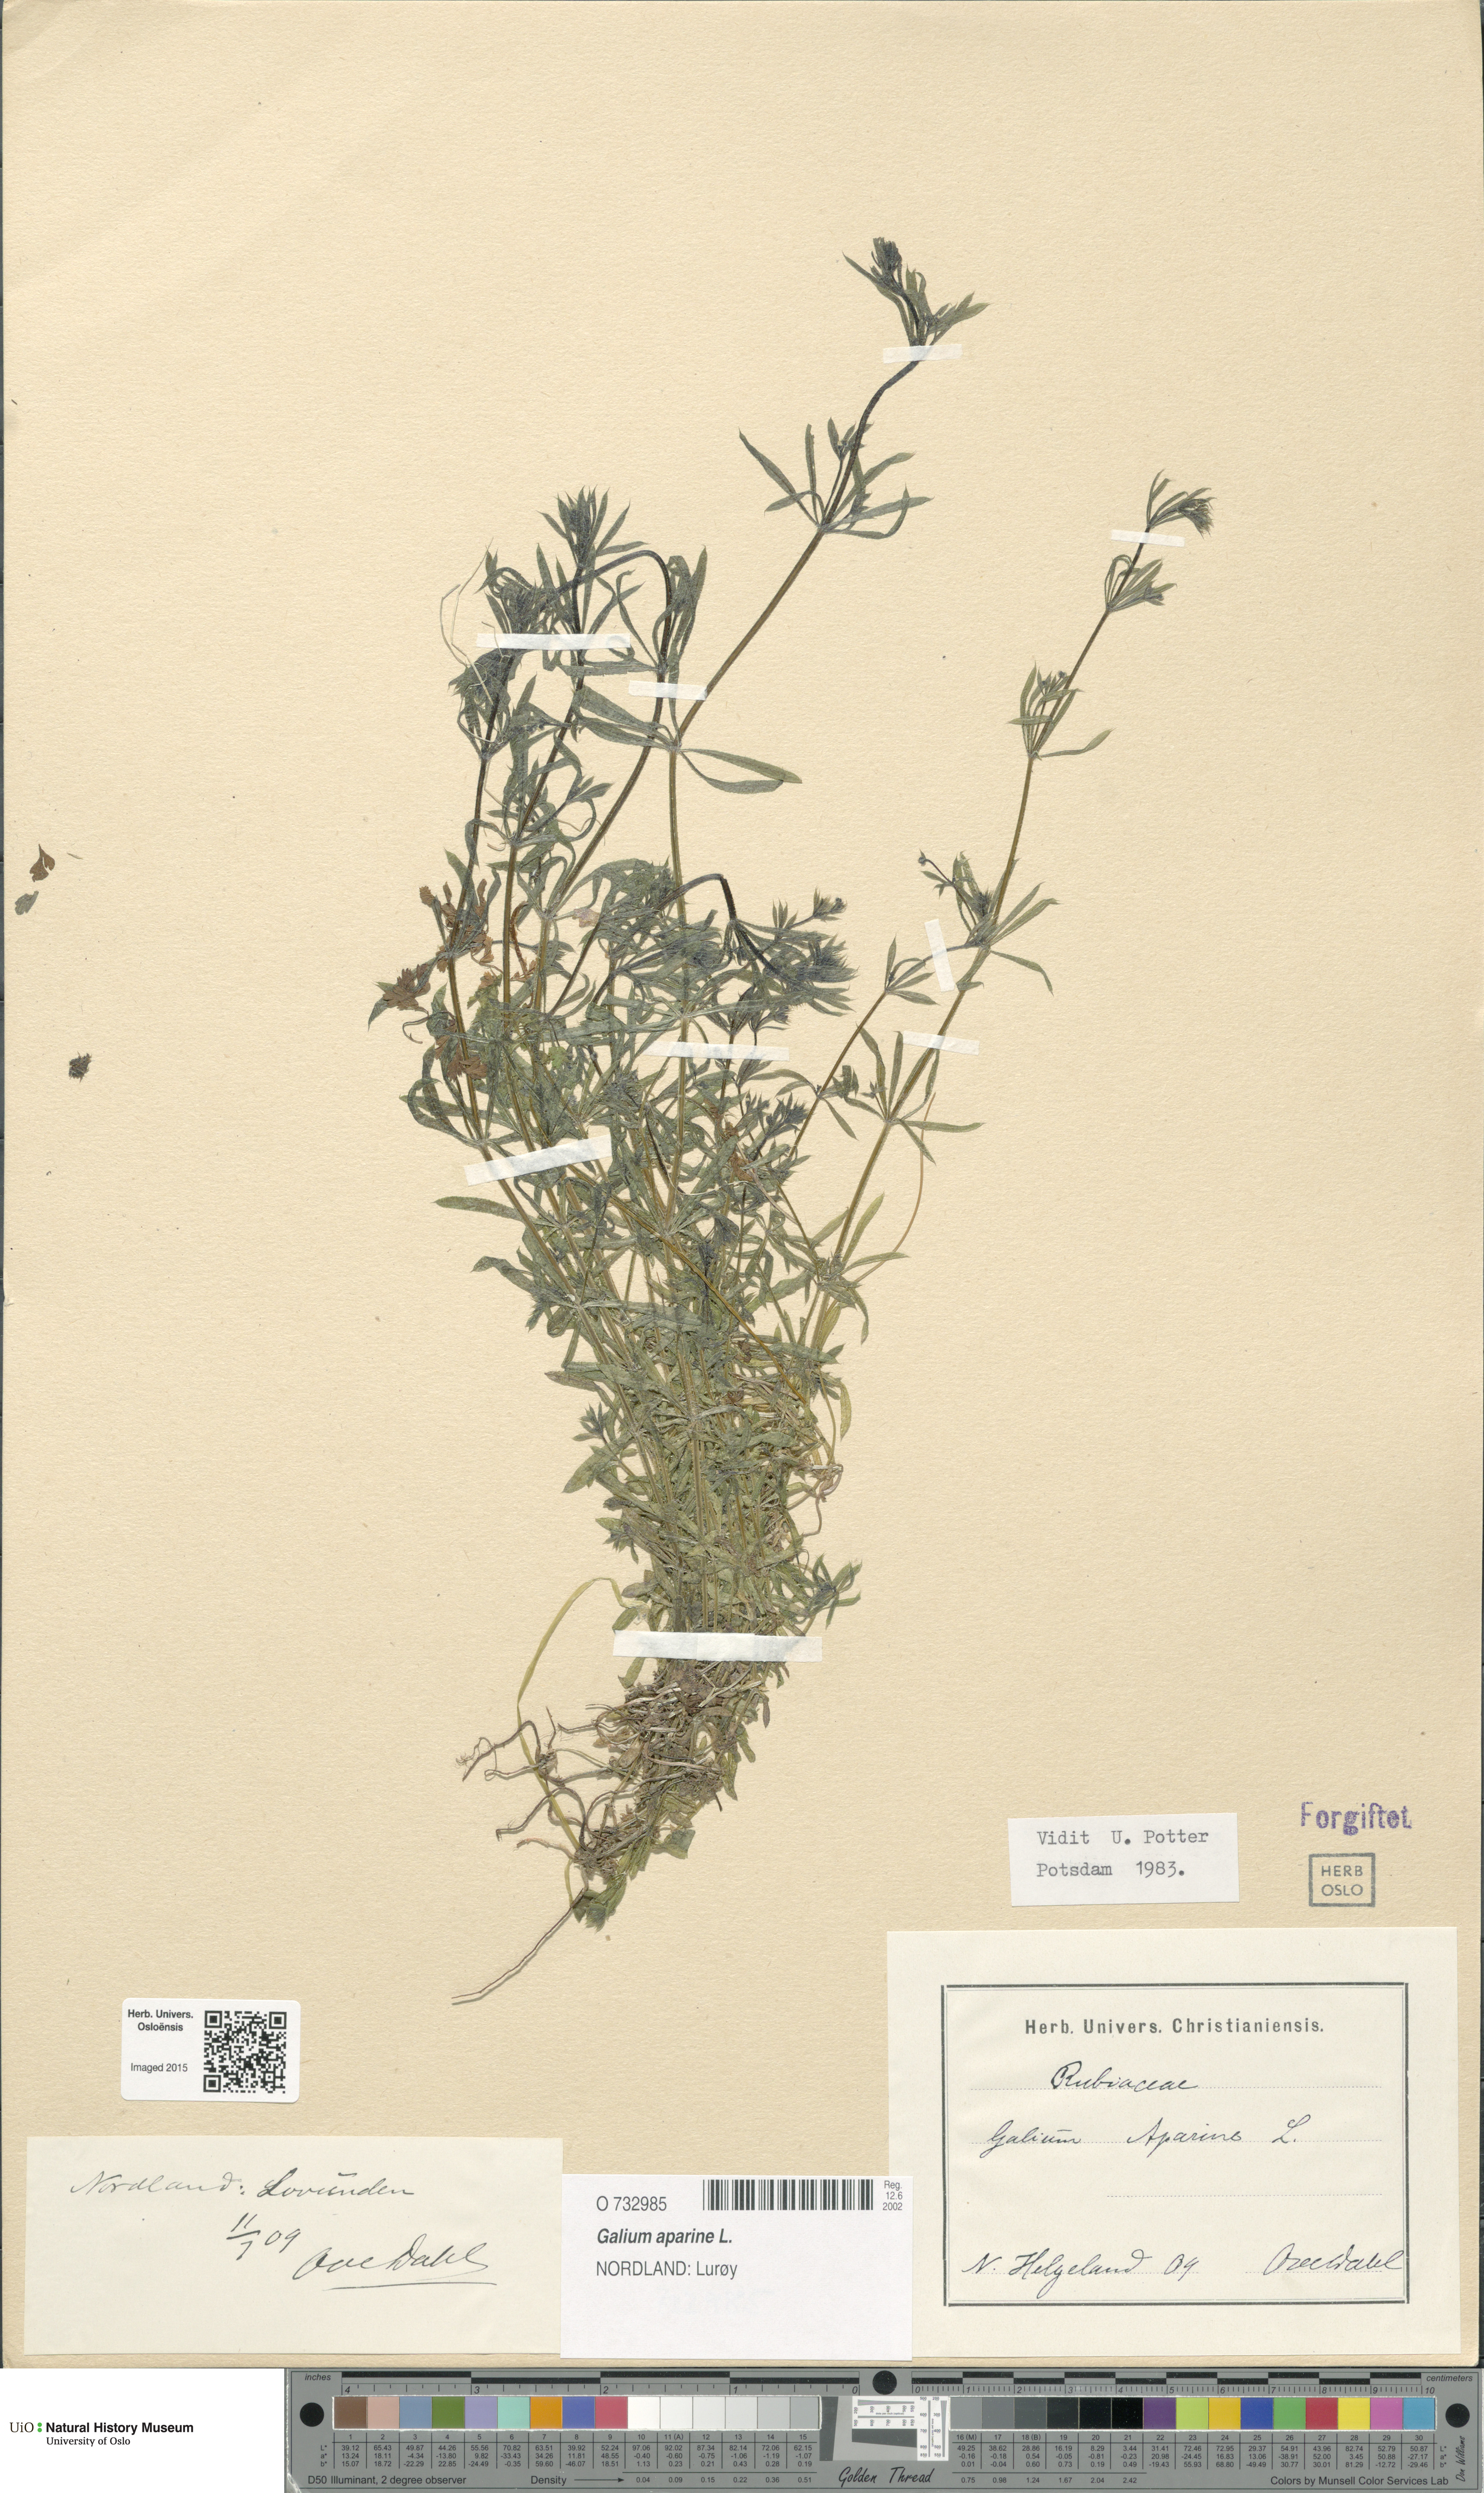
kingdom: Plantae
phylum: Tracheophyta
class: Magnoliopsida
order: Gentianales
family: Rubiaceae
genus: Galium
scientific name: Galium aparine
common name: Cleavers
